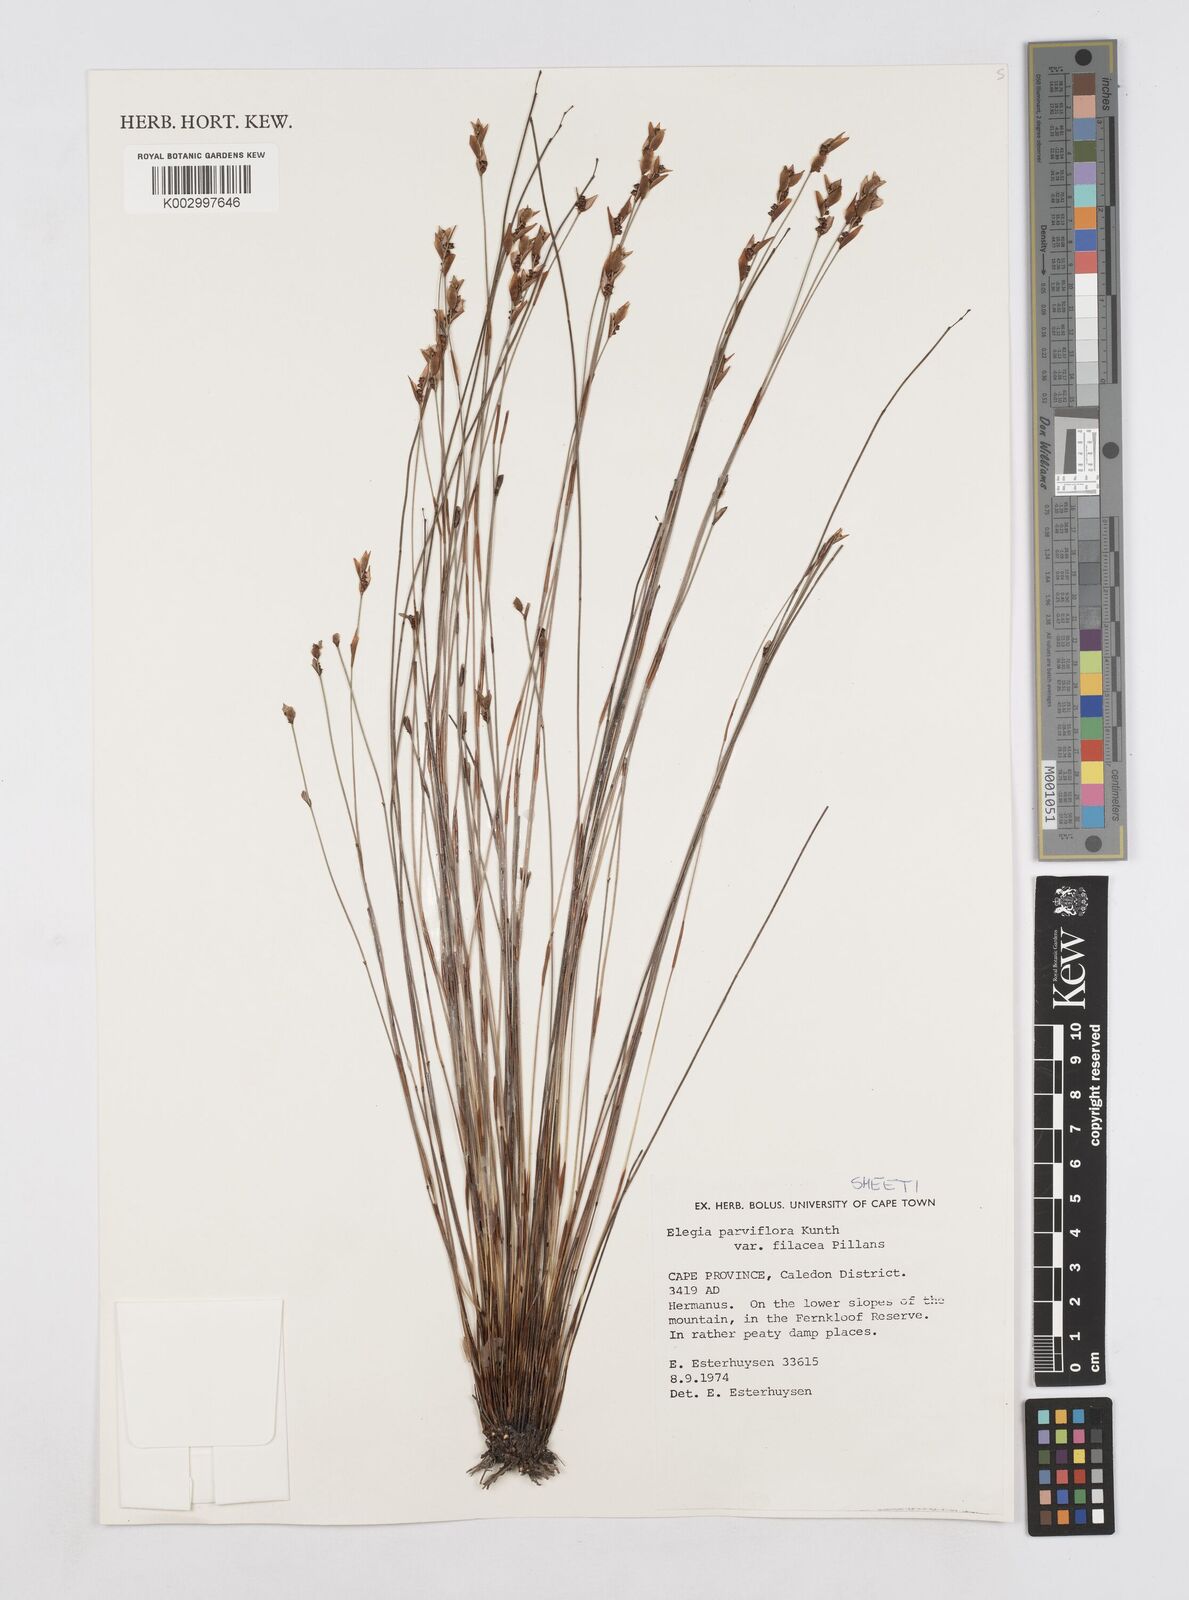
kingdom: Plantae
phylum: Tracheophyta
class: Liliopsida
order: Poales
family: Restionaceae
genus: Cannomois
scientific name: Cannomois parviflora
